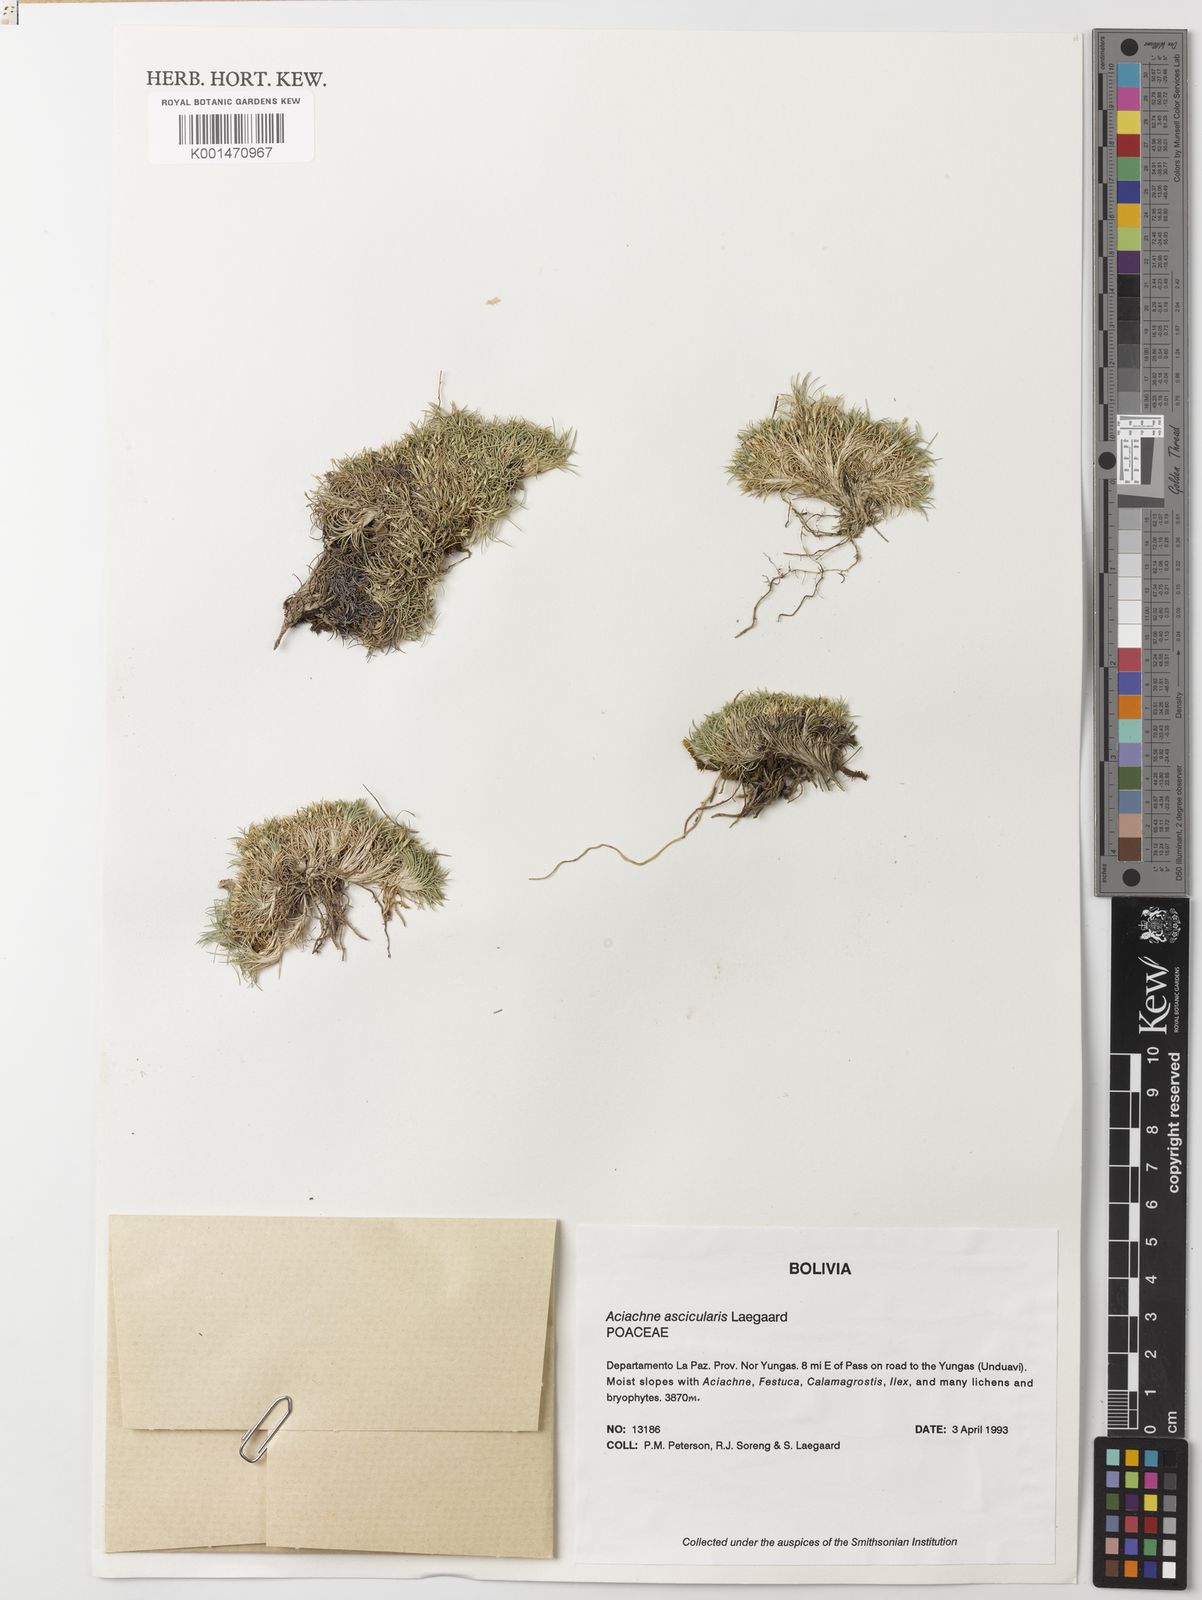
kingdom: Plantae
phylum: Tracheophyta
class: Liliopsida
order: Poales
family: Poaceae
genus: Aciachne
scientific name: Aciachne acicularis
